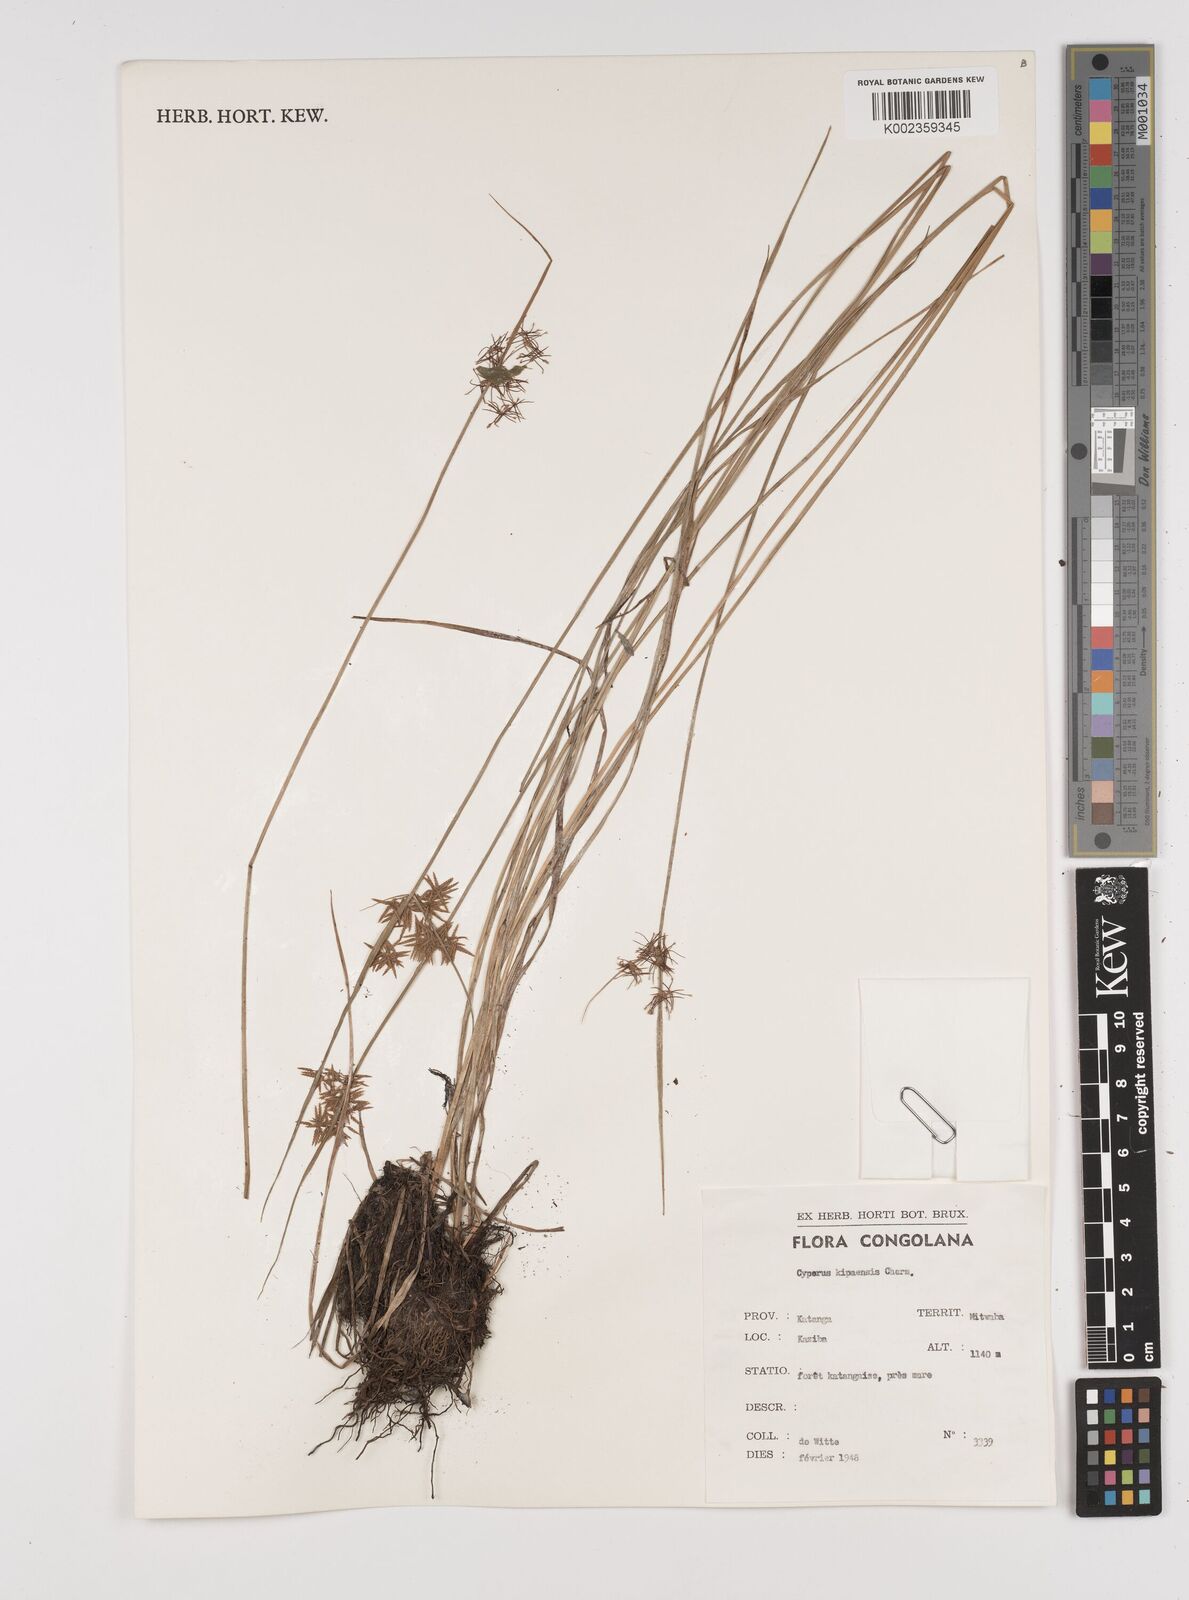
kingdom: Plantae
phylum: Tracheophyta
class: Liliopsida
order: Poales
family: Cyperaceae
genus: Cyperus
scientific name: Cyperus kipasensis
